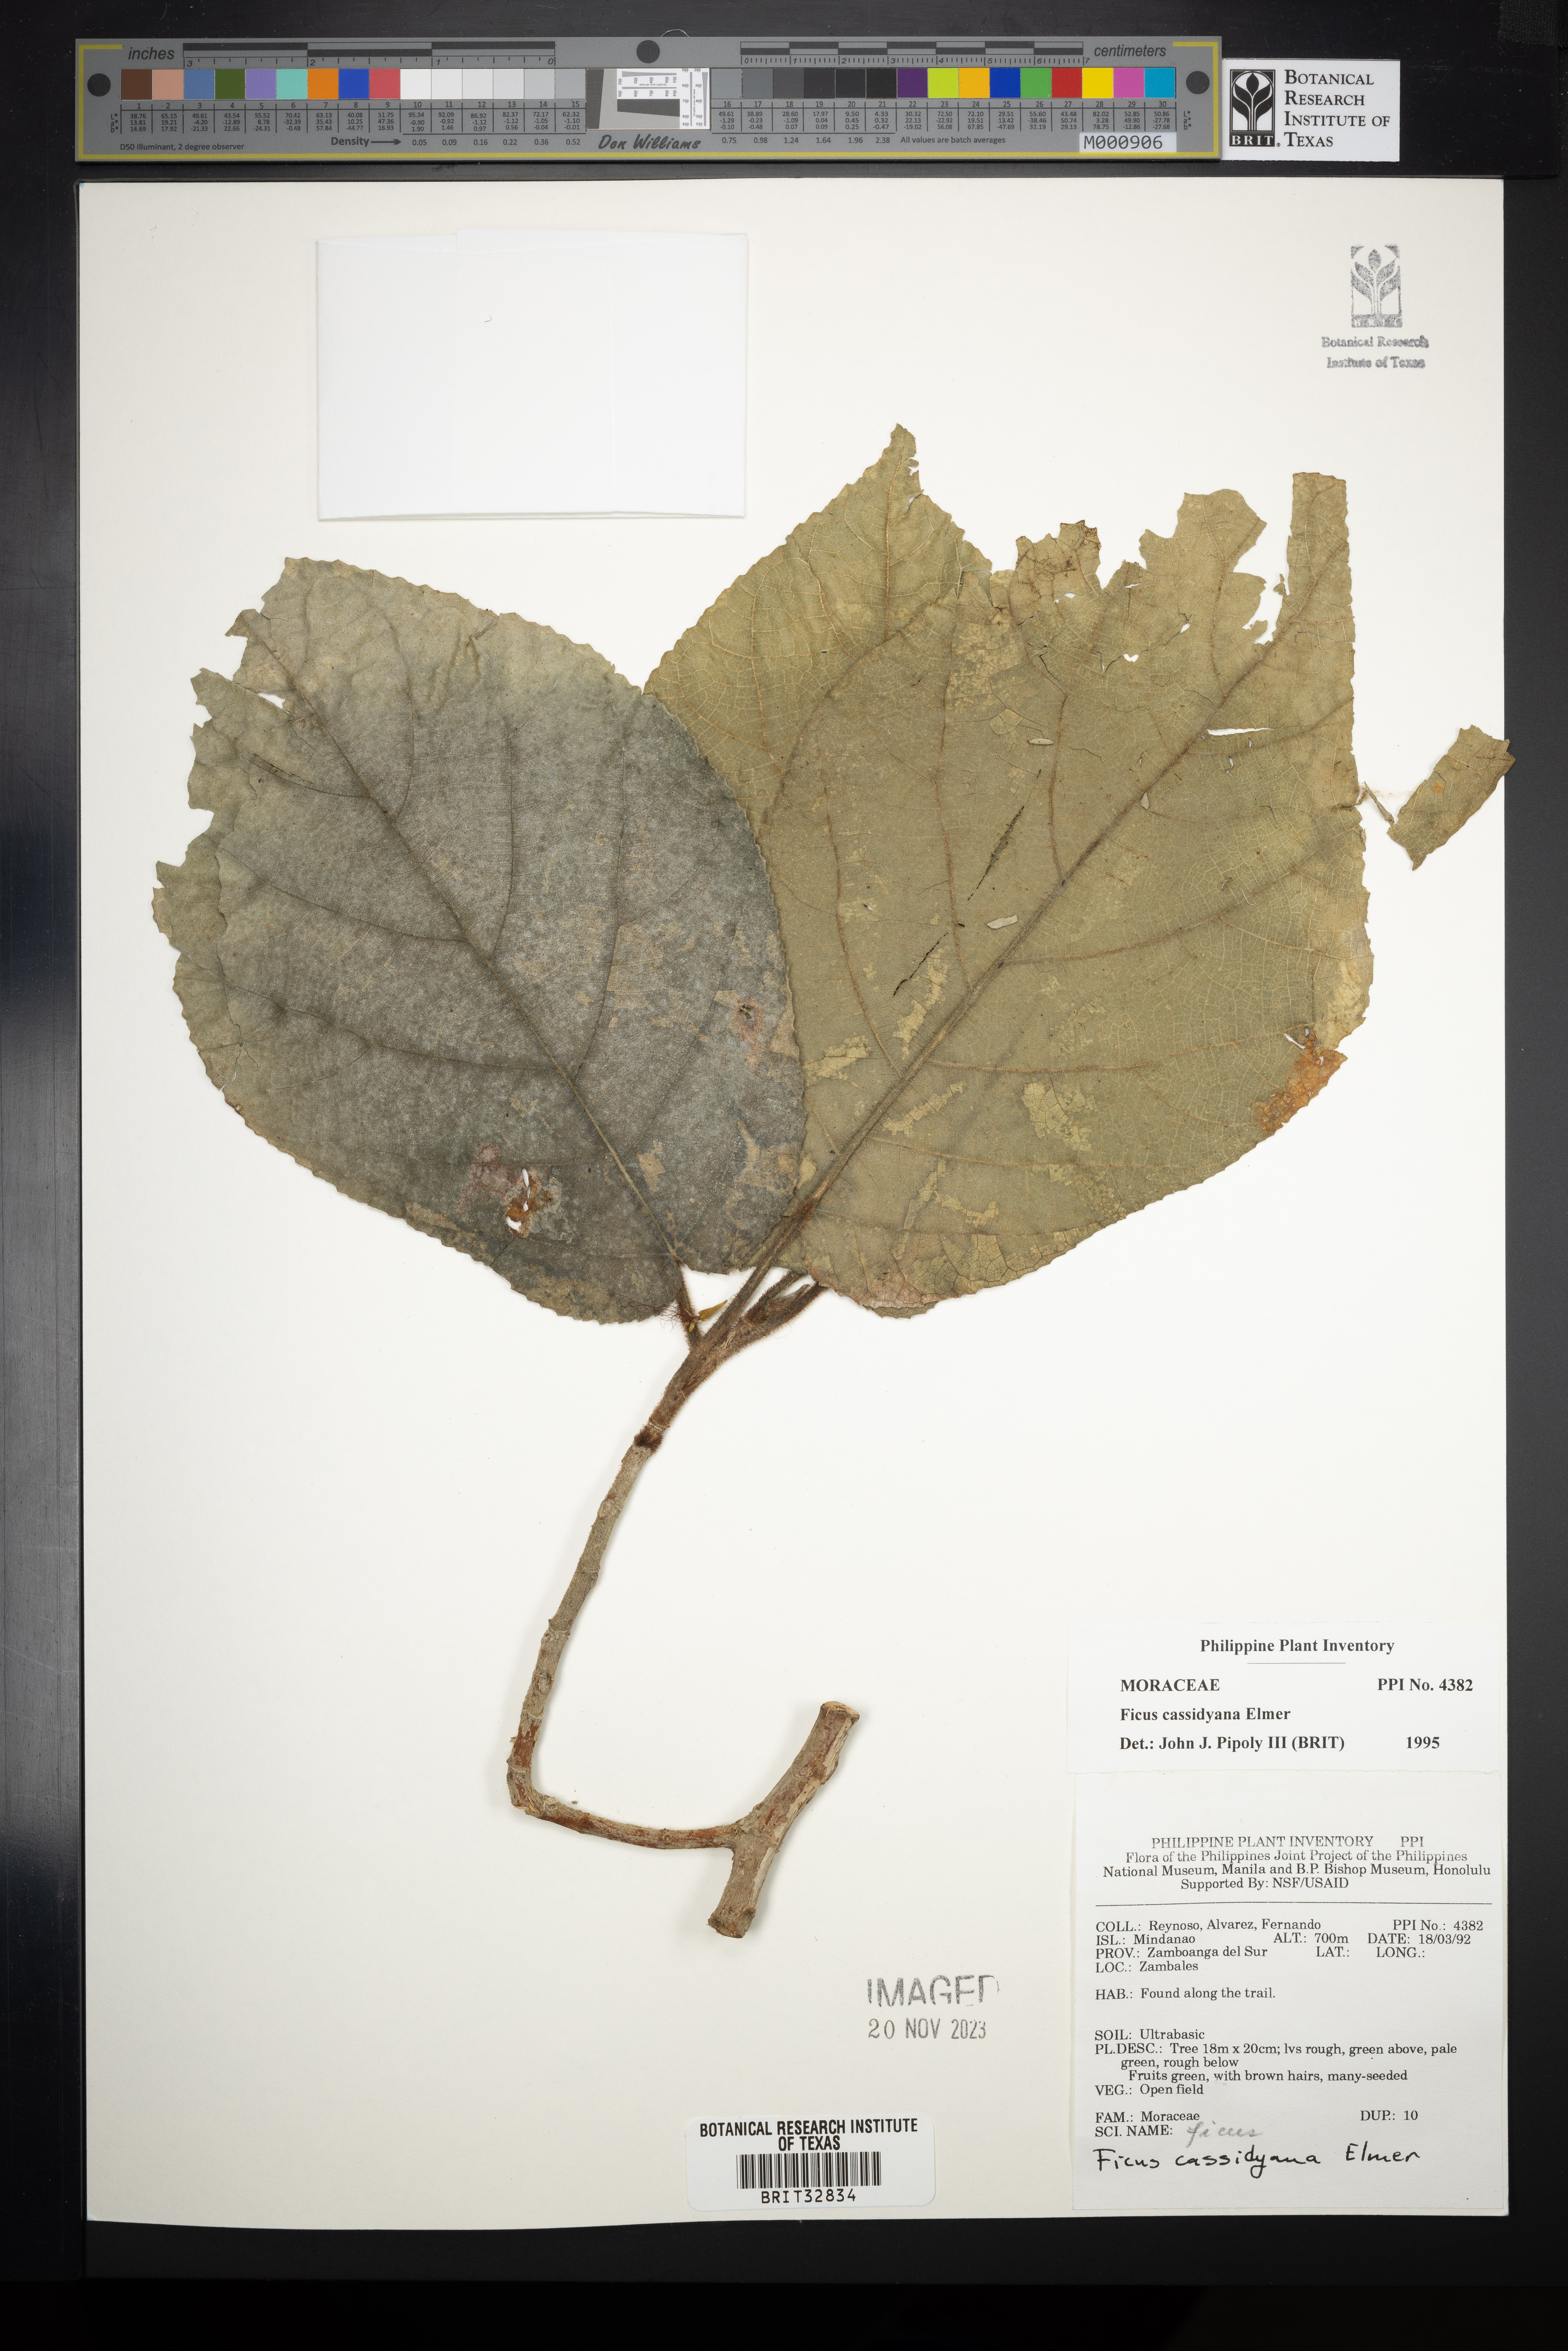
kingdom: Plantae
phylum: Tracheophyta
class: Magnoliopsida
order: Rosales
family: Moraceae
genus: Ficus
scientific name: Ficus cassidyana
